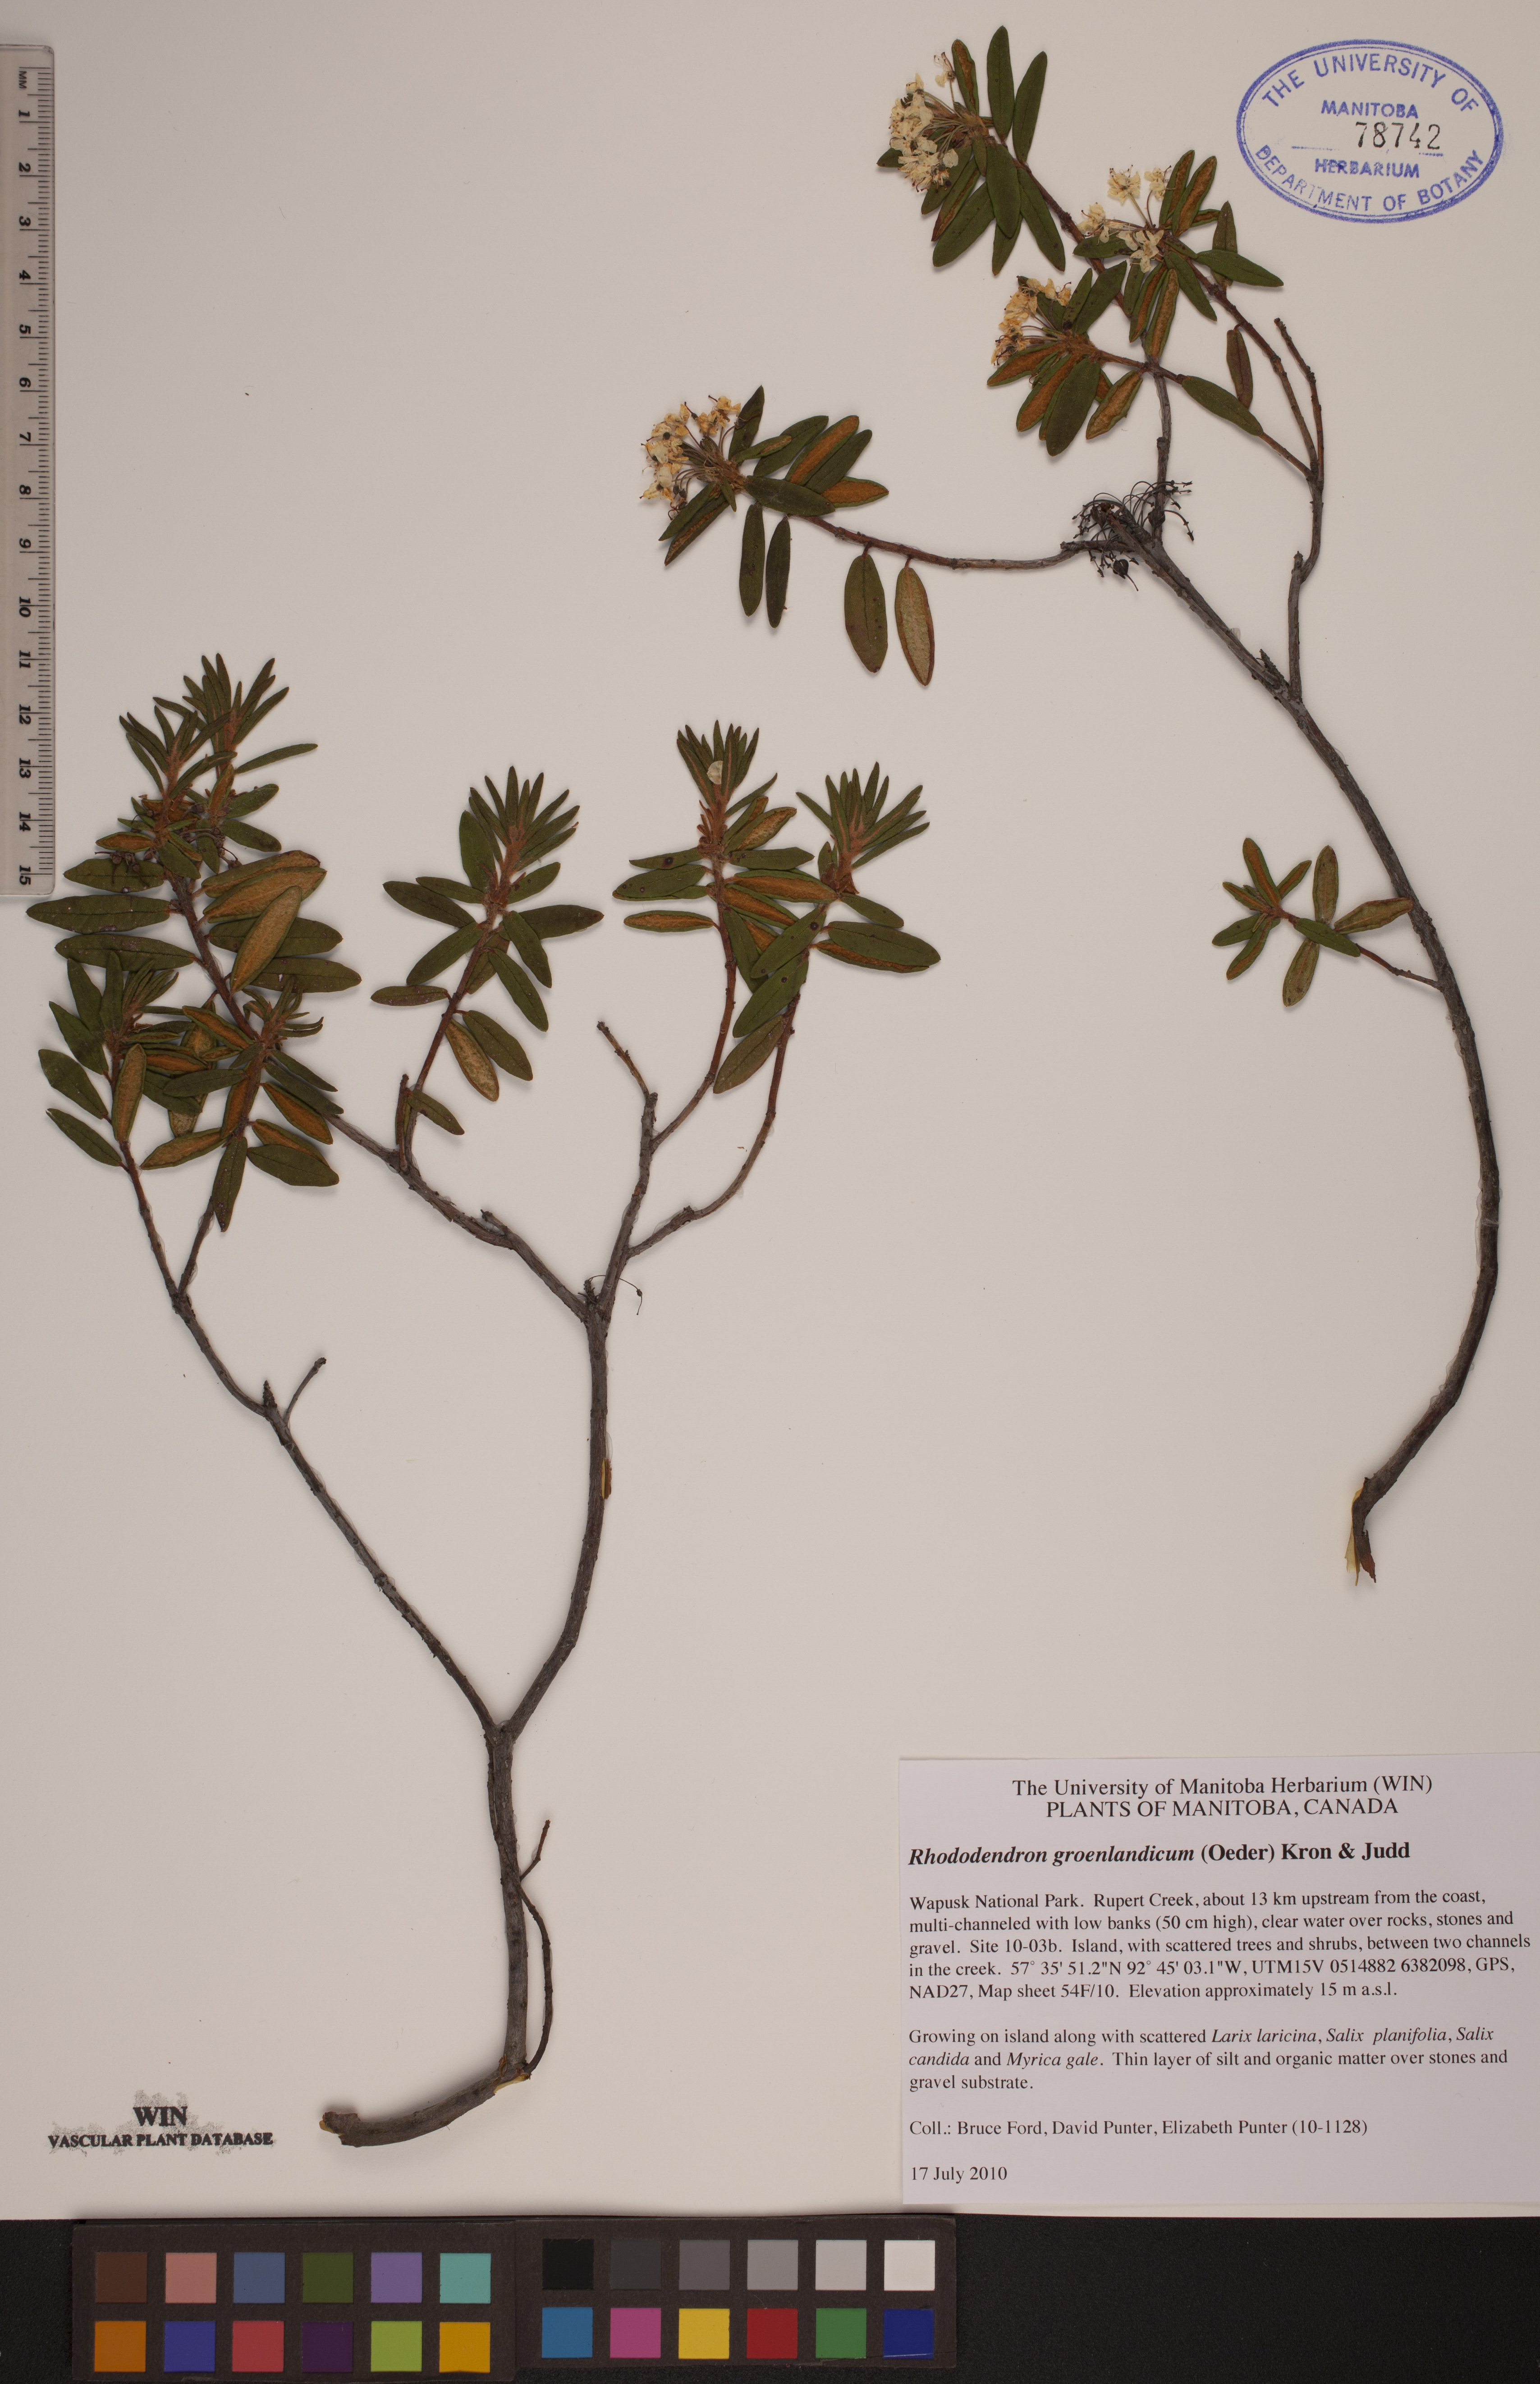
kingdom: Plantae
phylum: Tracheophyta
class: Magnoliopsida
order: Ericales
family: Ericaceae
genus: Rhododendron
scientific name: Rhododendron groenlandicum
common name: Bog labrador tea
